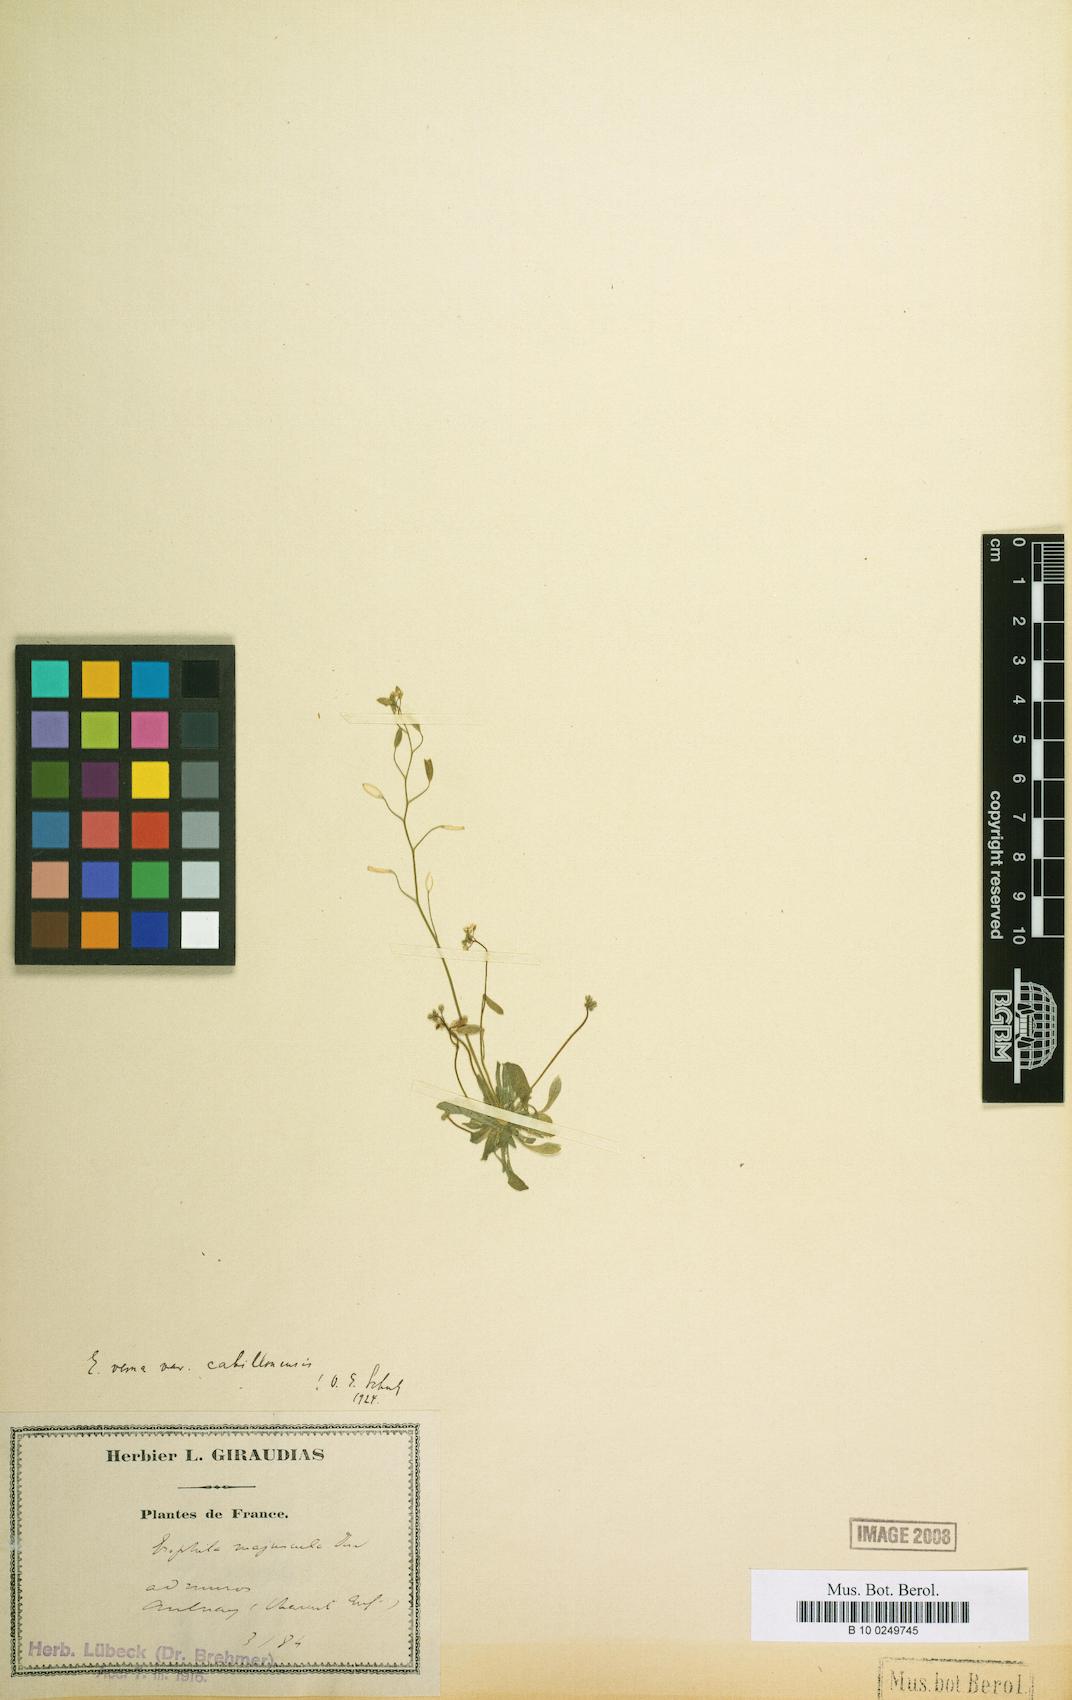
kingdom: Plantae
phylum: Tracheophyta
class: Magnoliopsida
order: Brassicales
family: Brassicaceae
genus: Draba
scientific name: Draba verna
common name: Spring draba
